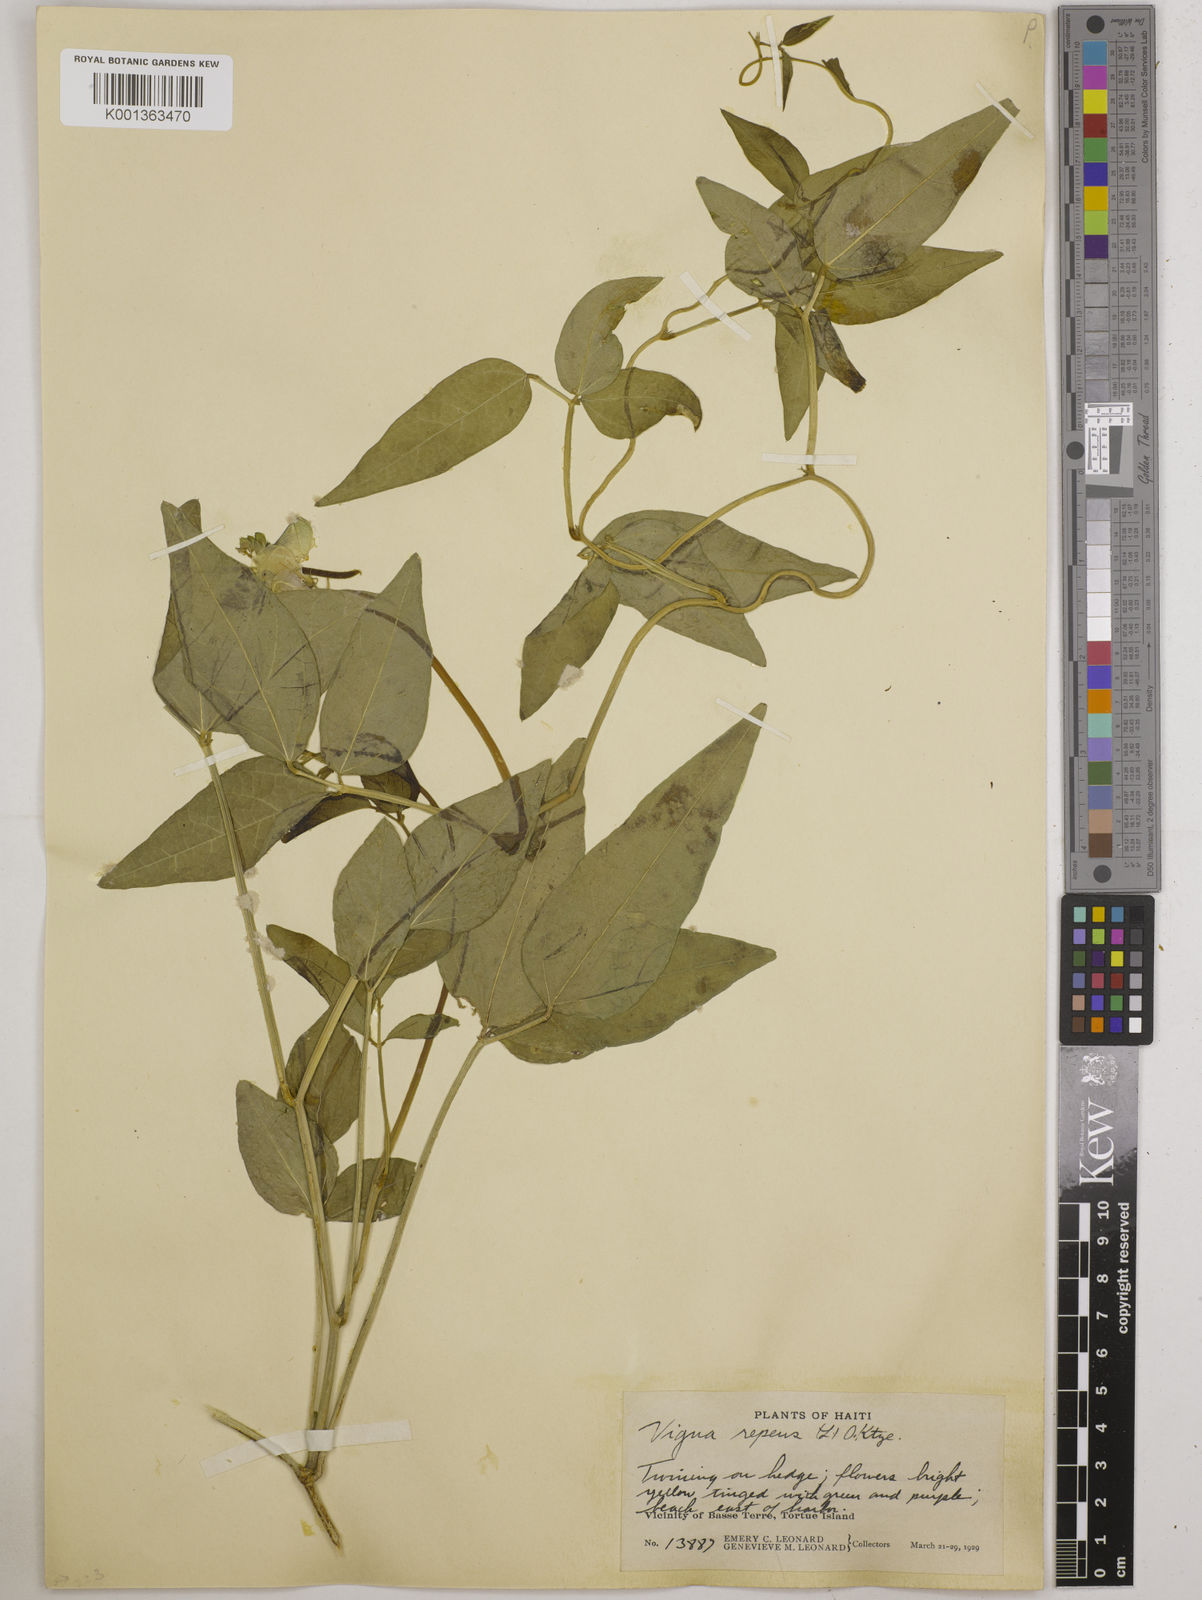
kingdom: Plantae
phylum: Tracheophyta
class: Magnoliopsida
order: Fabales
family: Fabaceae
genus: Vigna
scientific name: Vigna luteola
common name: Hairypod cowpea
